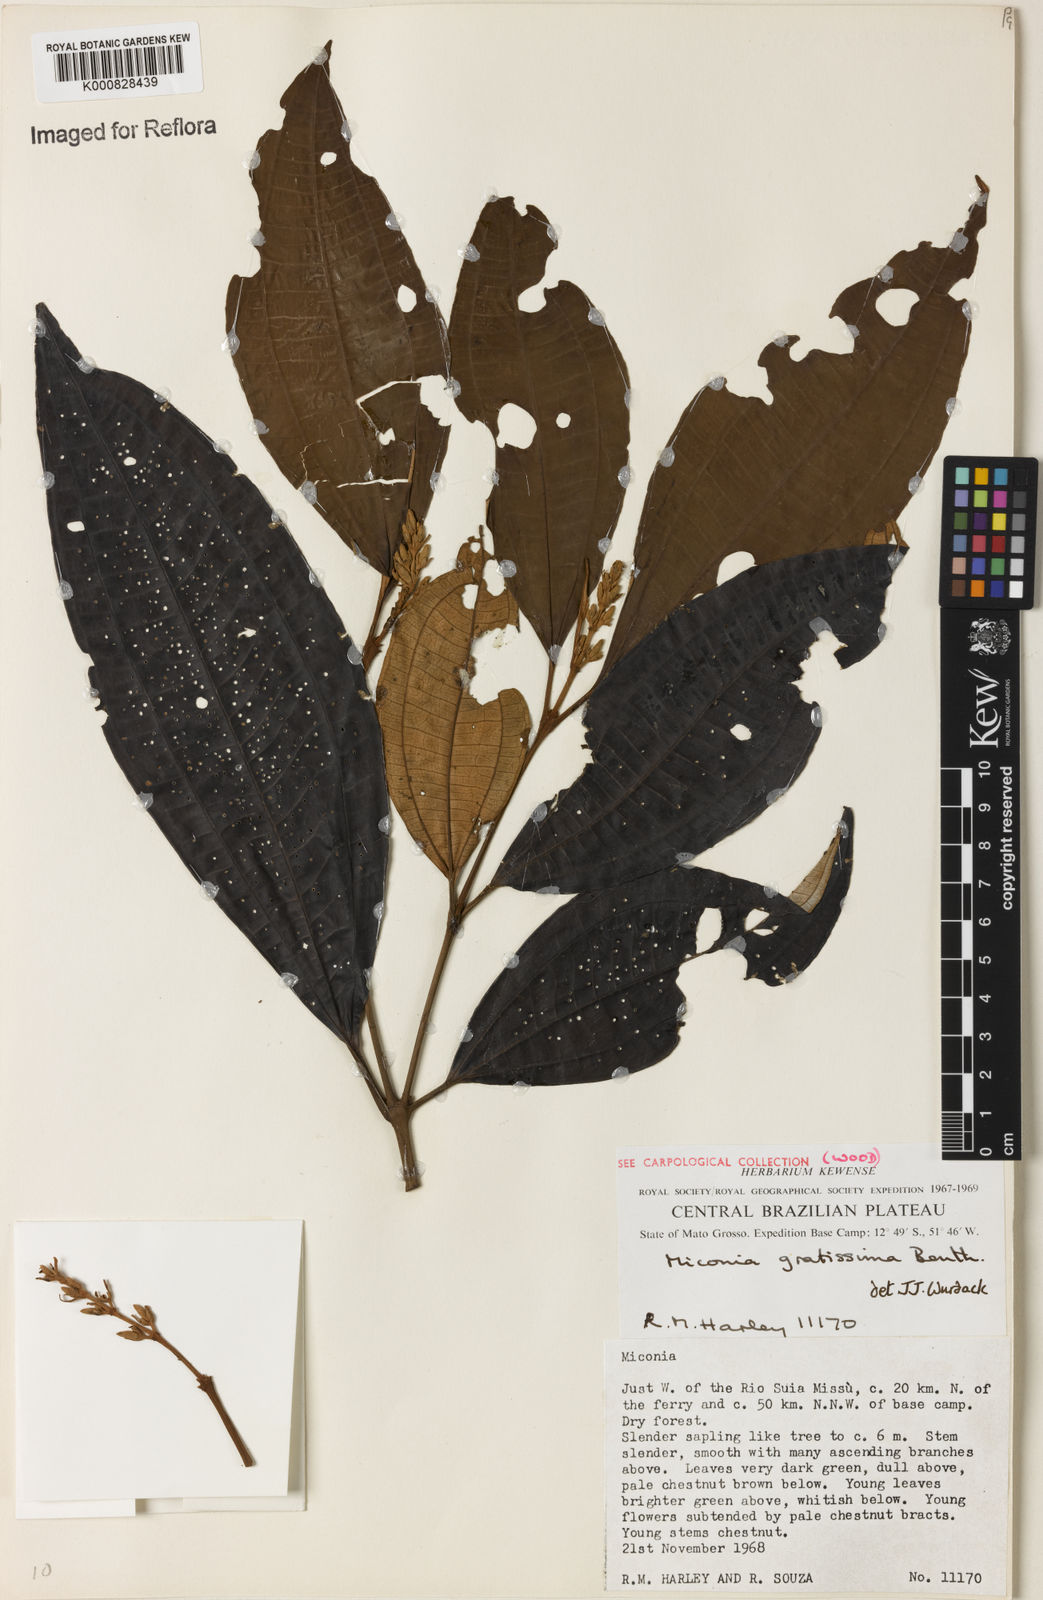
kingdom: Plantae
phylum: Tracheophyta
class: Magnoliopsida
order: Myrtales
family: Melastomataceae
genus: Miconia
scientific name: Miconia gratissima
